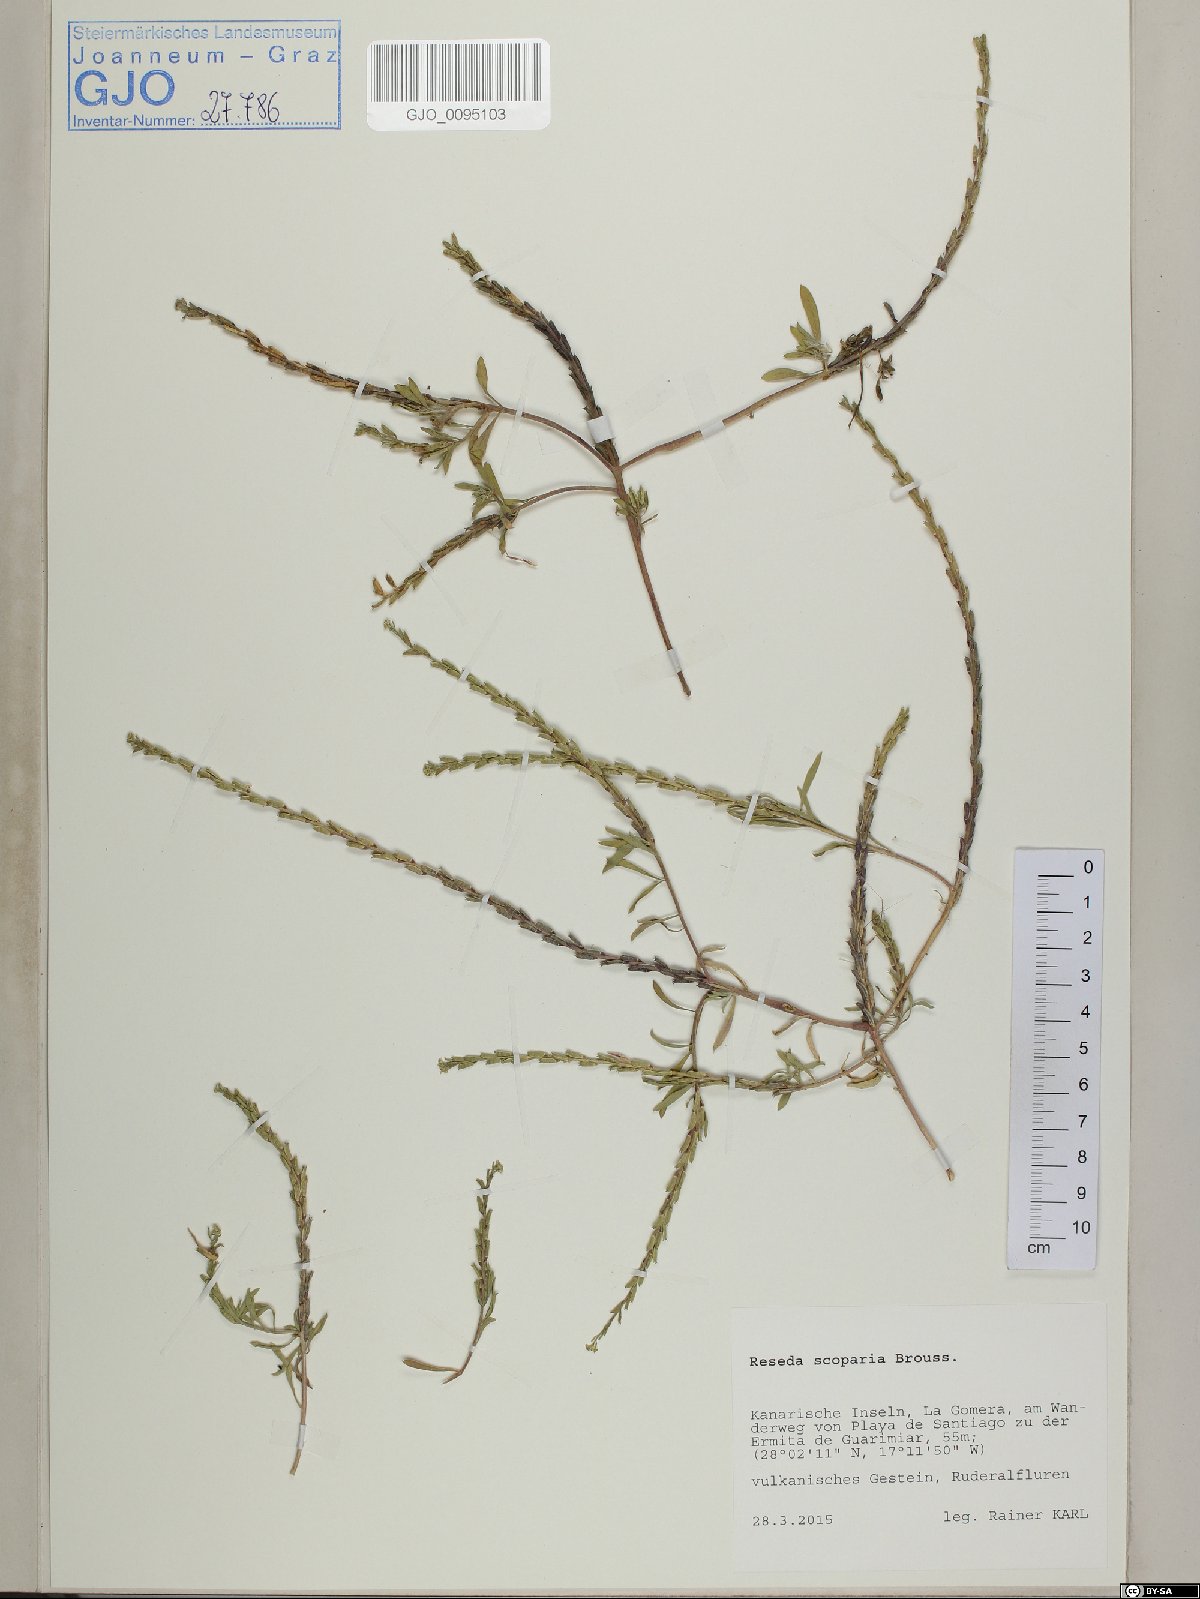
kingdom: Plantae
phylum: Tracheophyta
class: Magnoliopsida
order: Brassicales
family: Resedaceae
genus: Reseda
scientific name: Reseda scoparia
